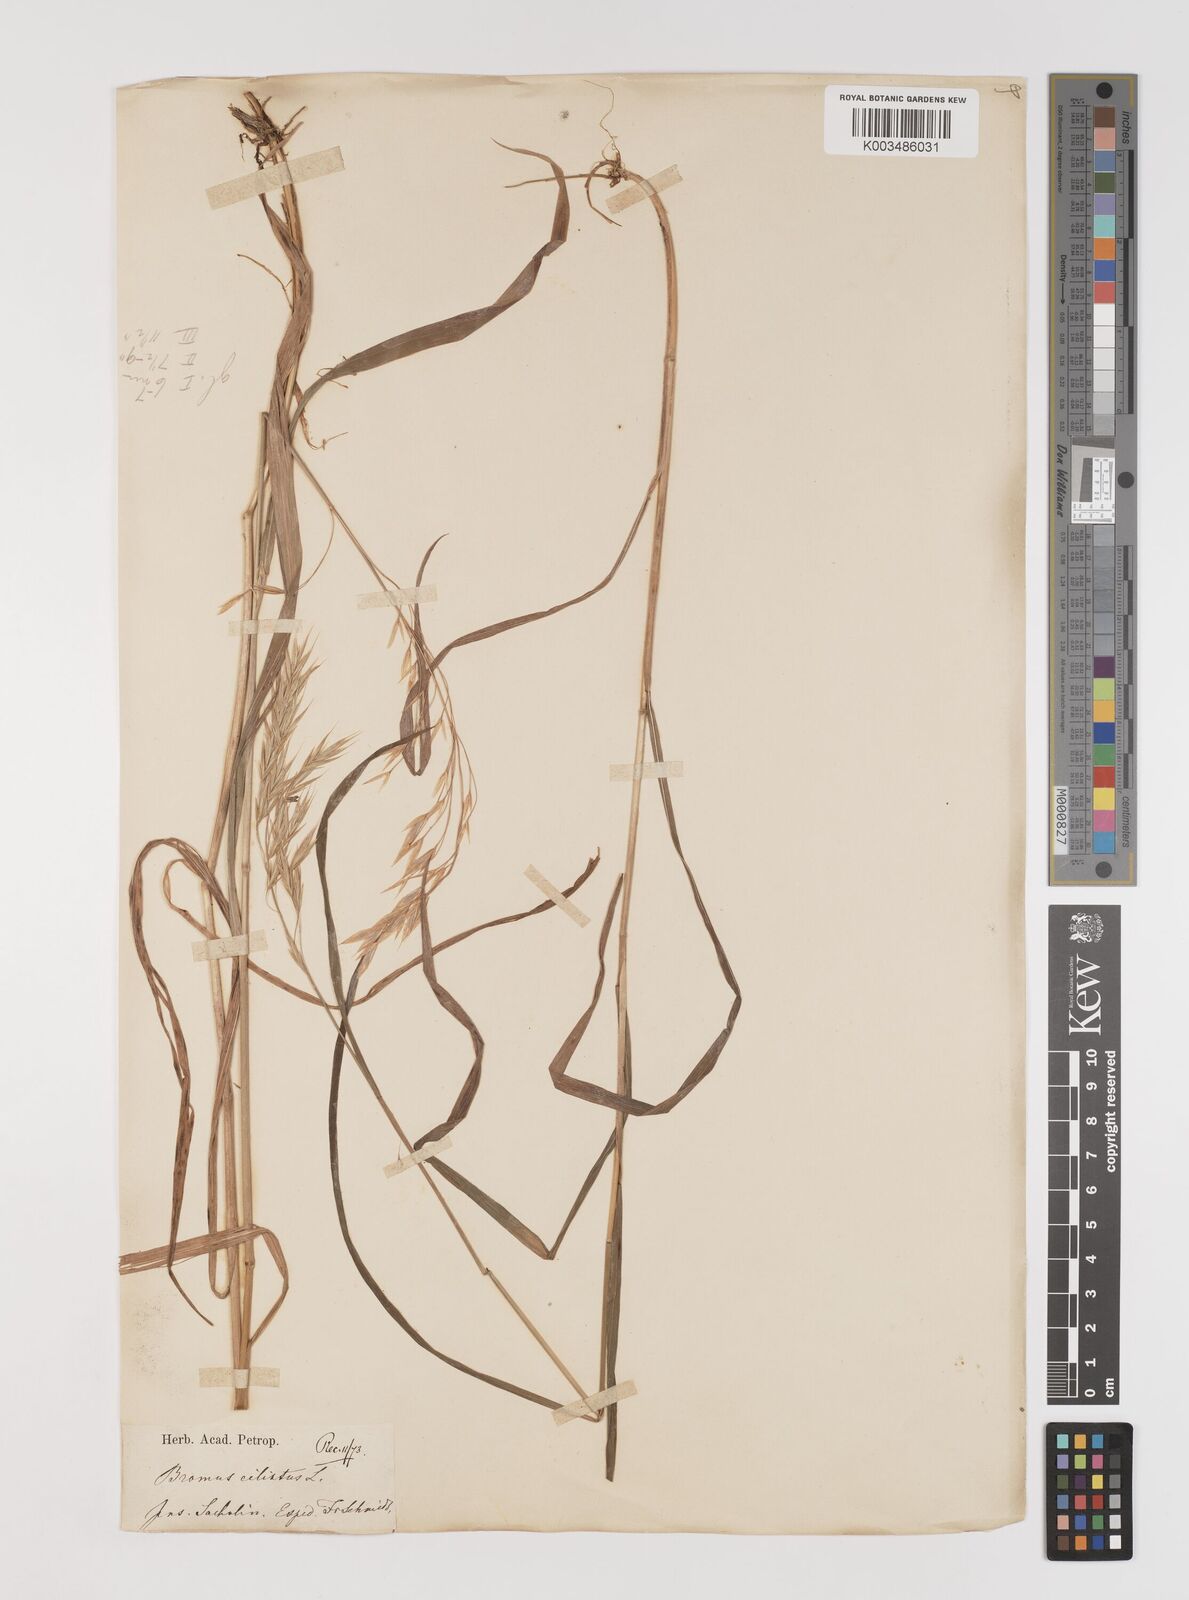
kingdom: Plantae
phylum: Tracheophyta
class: Liliopsida
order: Poales
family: Poaceae
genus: Bromus
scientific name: Bromus inermis
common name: Smooth brome
